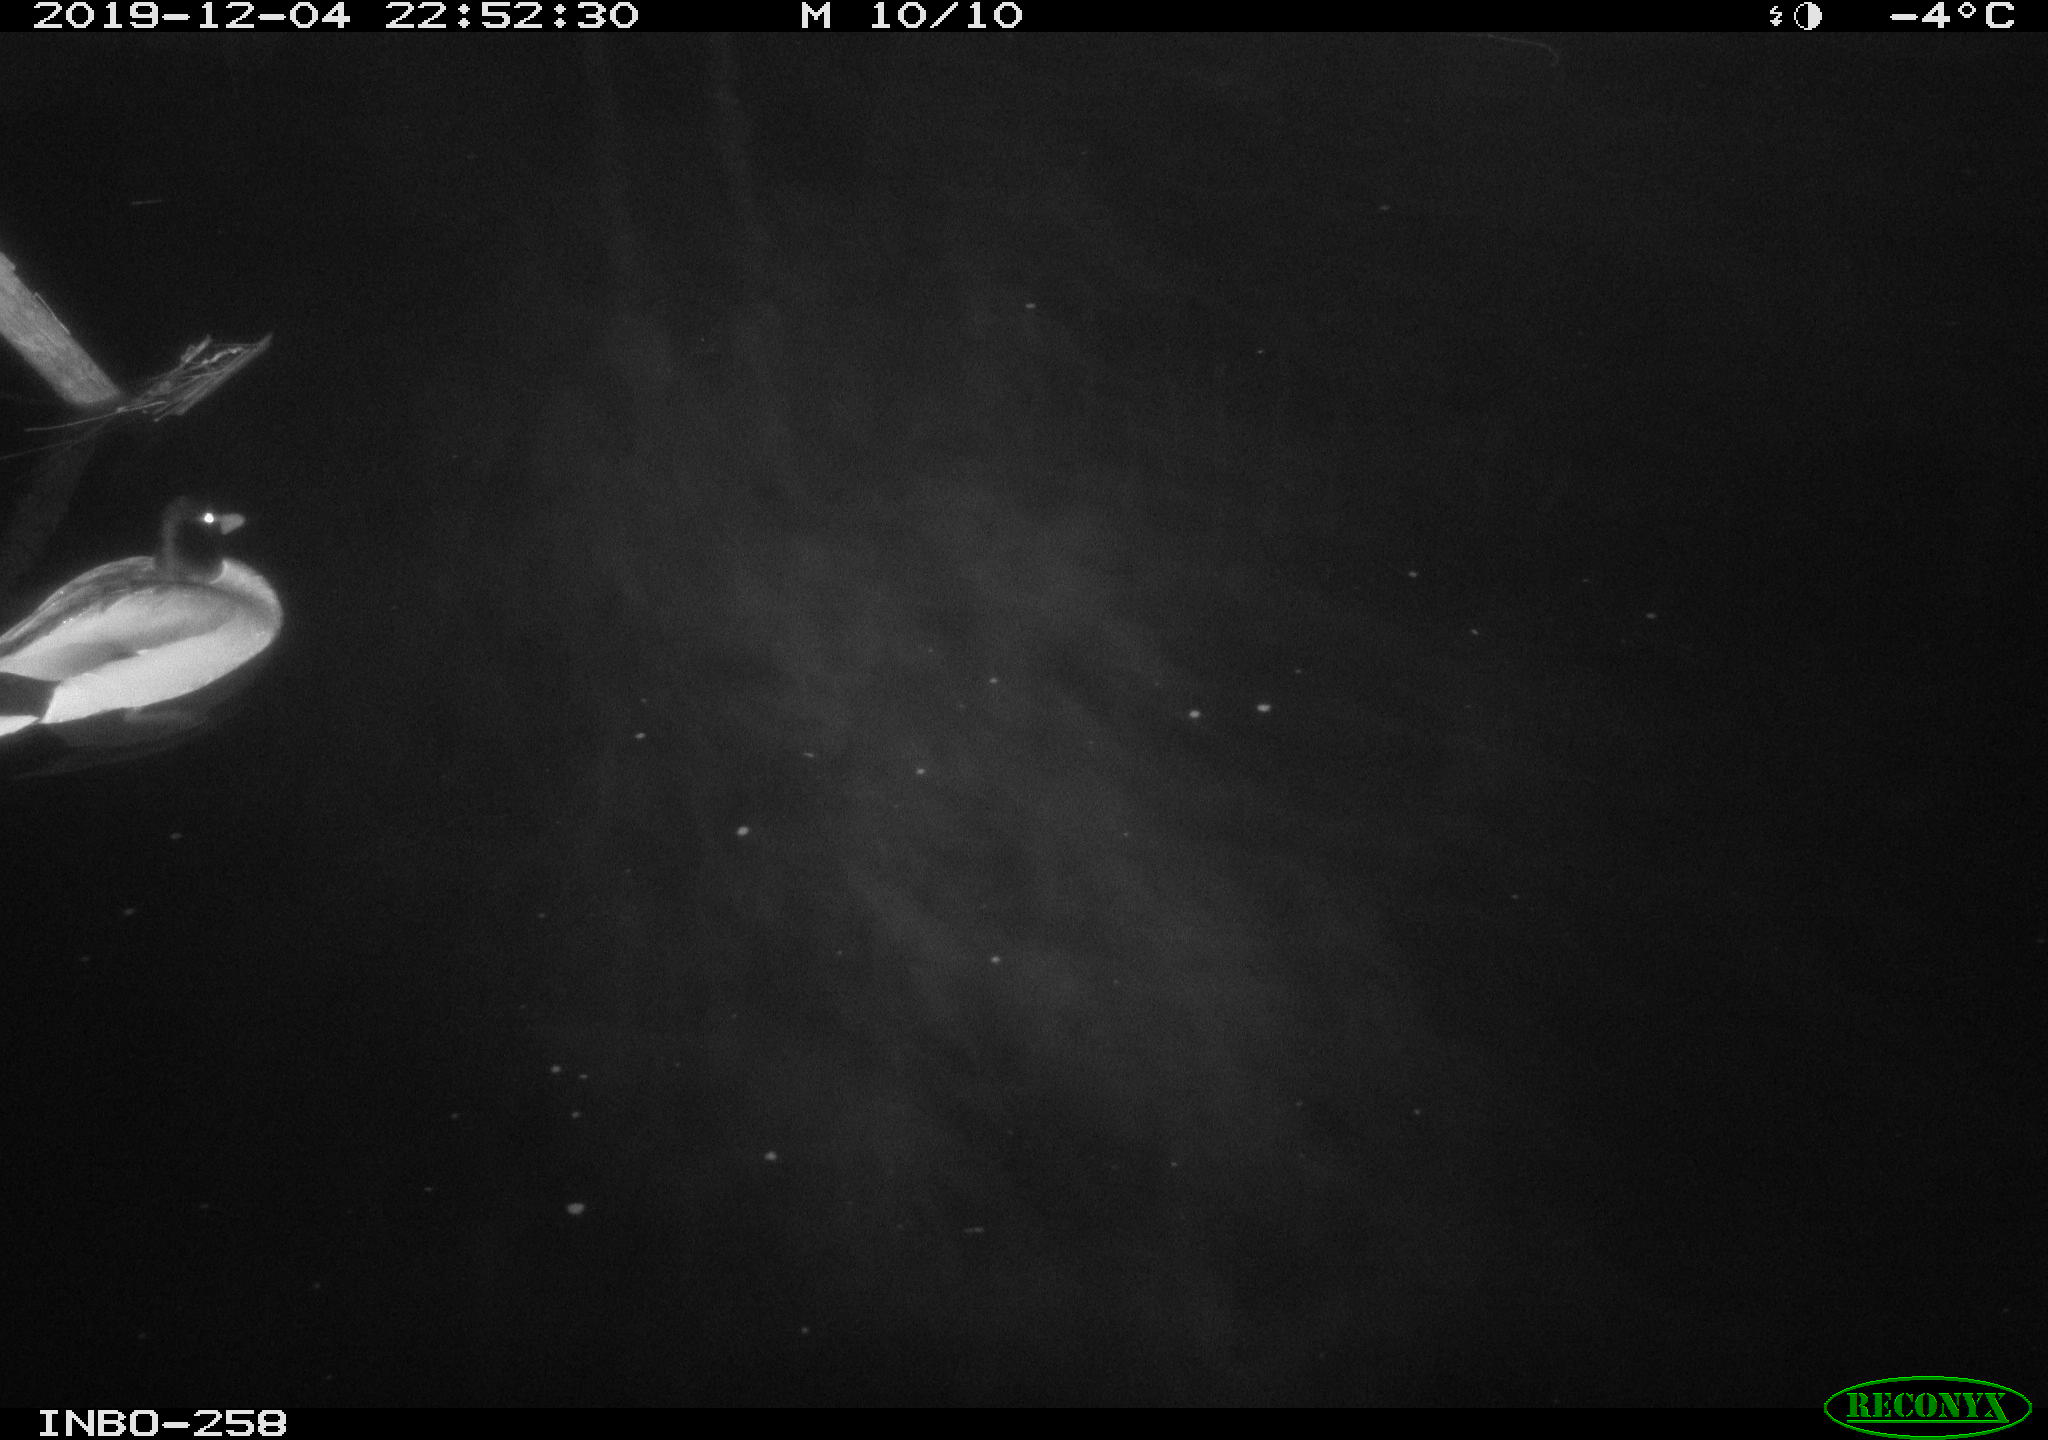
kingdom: Animalia
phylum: Chordata
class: Aves
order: Anseriformes
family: Anatidae
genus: Anas
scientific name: Anas platyrhynchos
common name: Mallard
